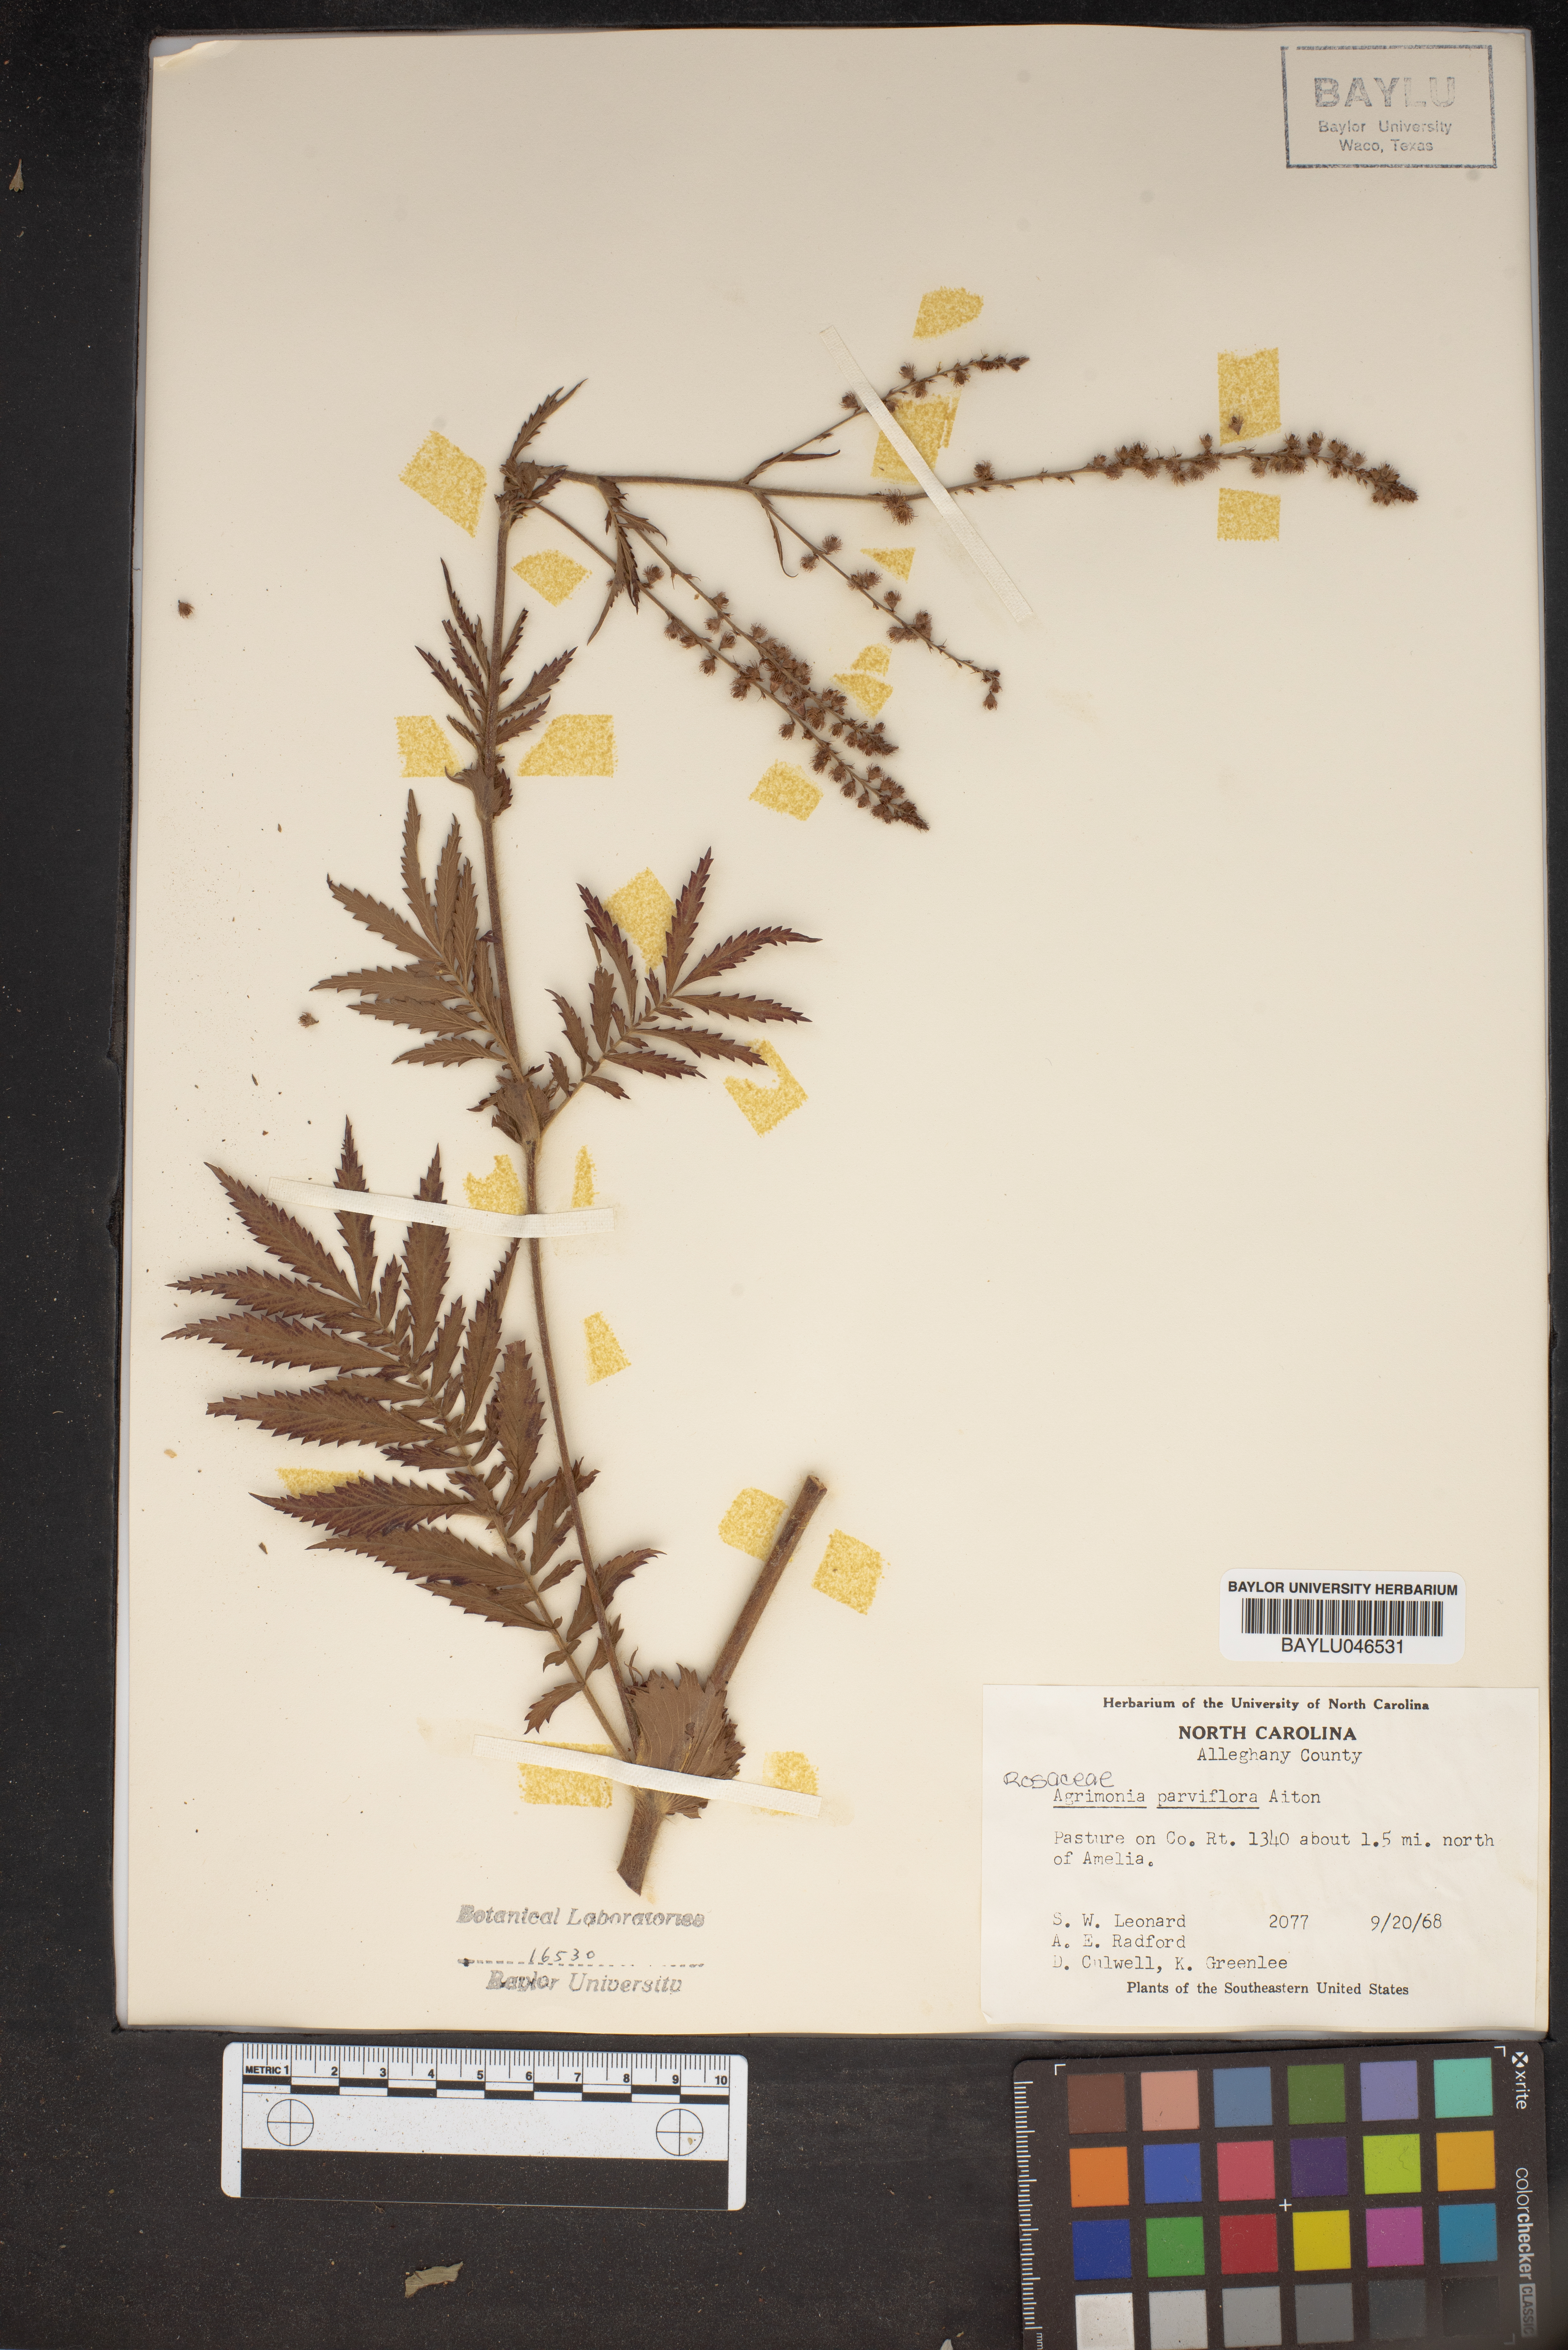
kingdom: Plantae
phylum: Tracheophyta
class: Magnoliopsida
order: Rosales
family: Rosaceae
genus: Agrimonia
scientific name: Agrimonia parviflora
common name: Harvest-lice
